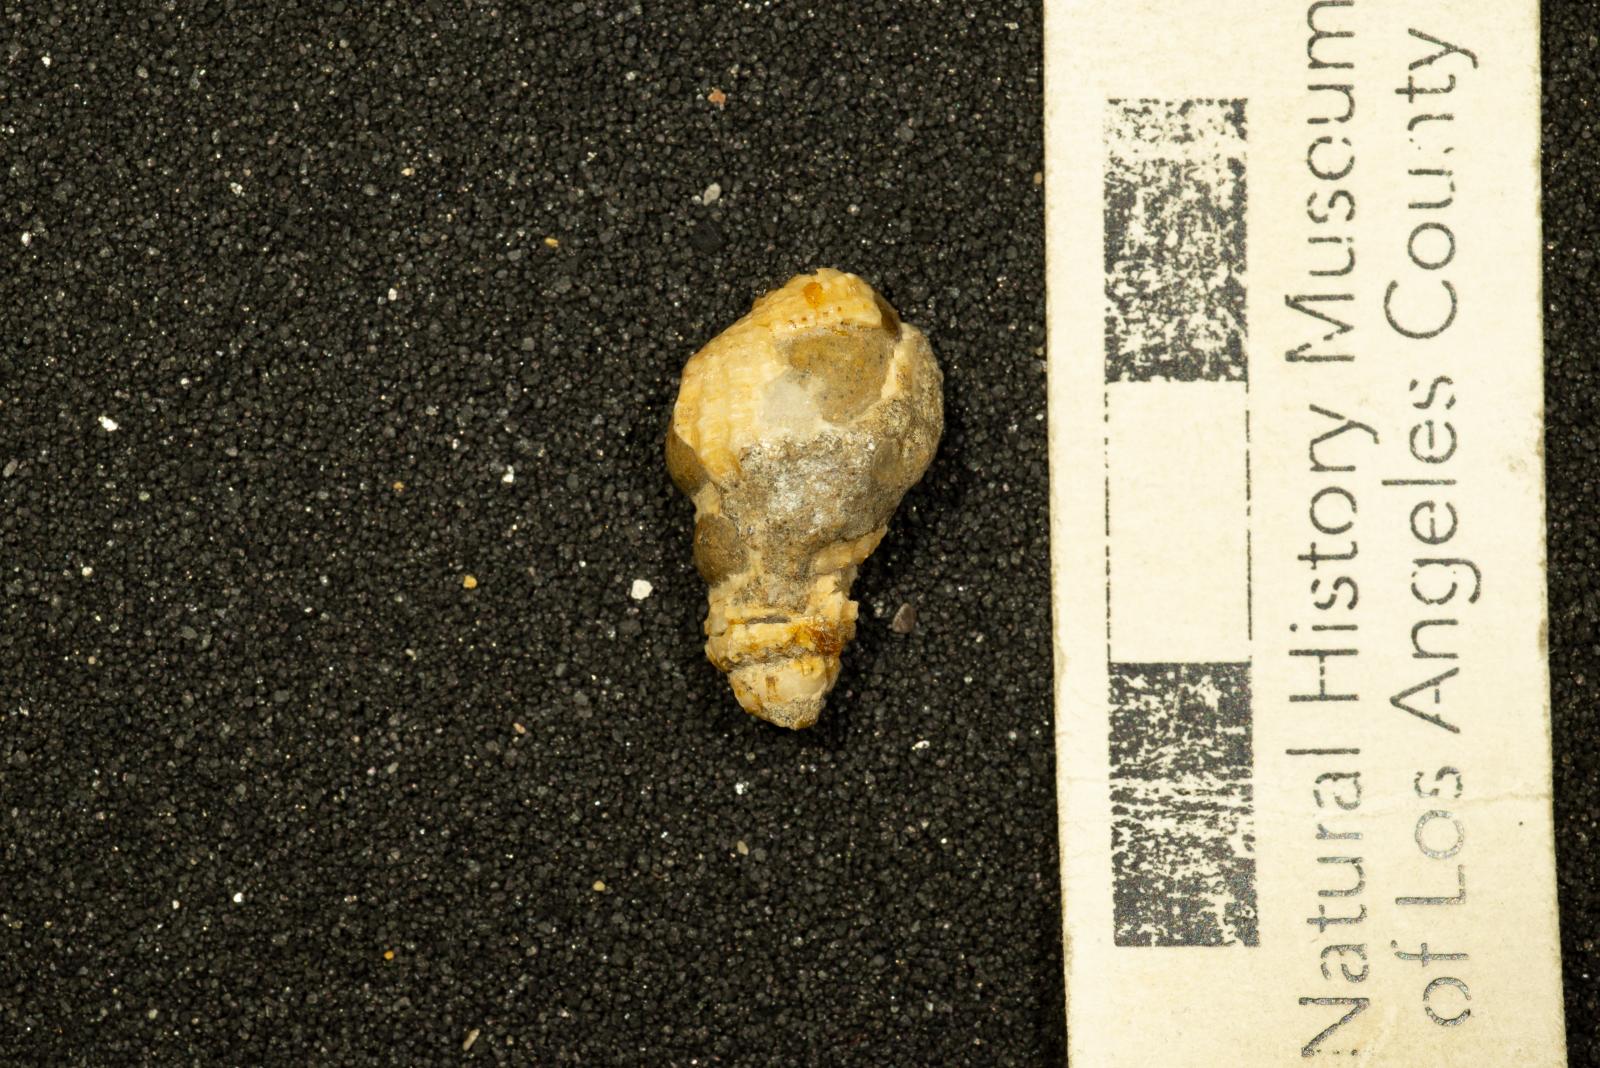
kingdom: Animalia
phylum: Mollusca
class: Gastropoda
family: Cerithiidae
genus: Cerithium
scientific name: Cerithium lallierianum
